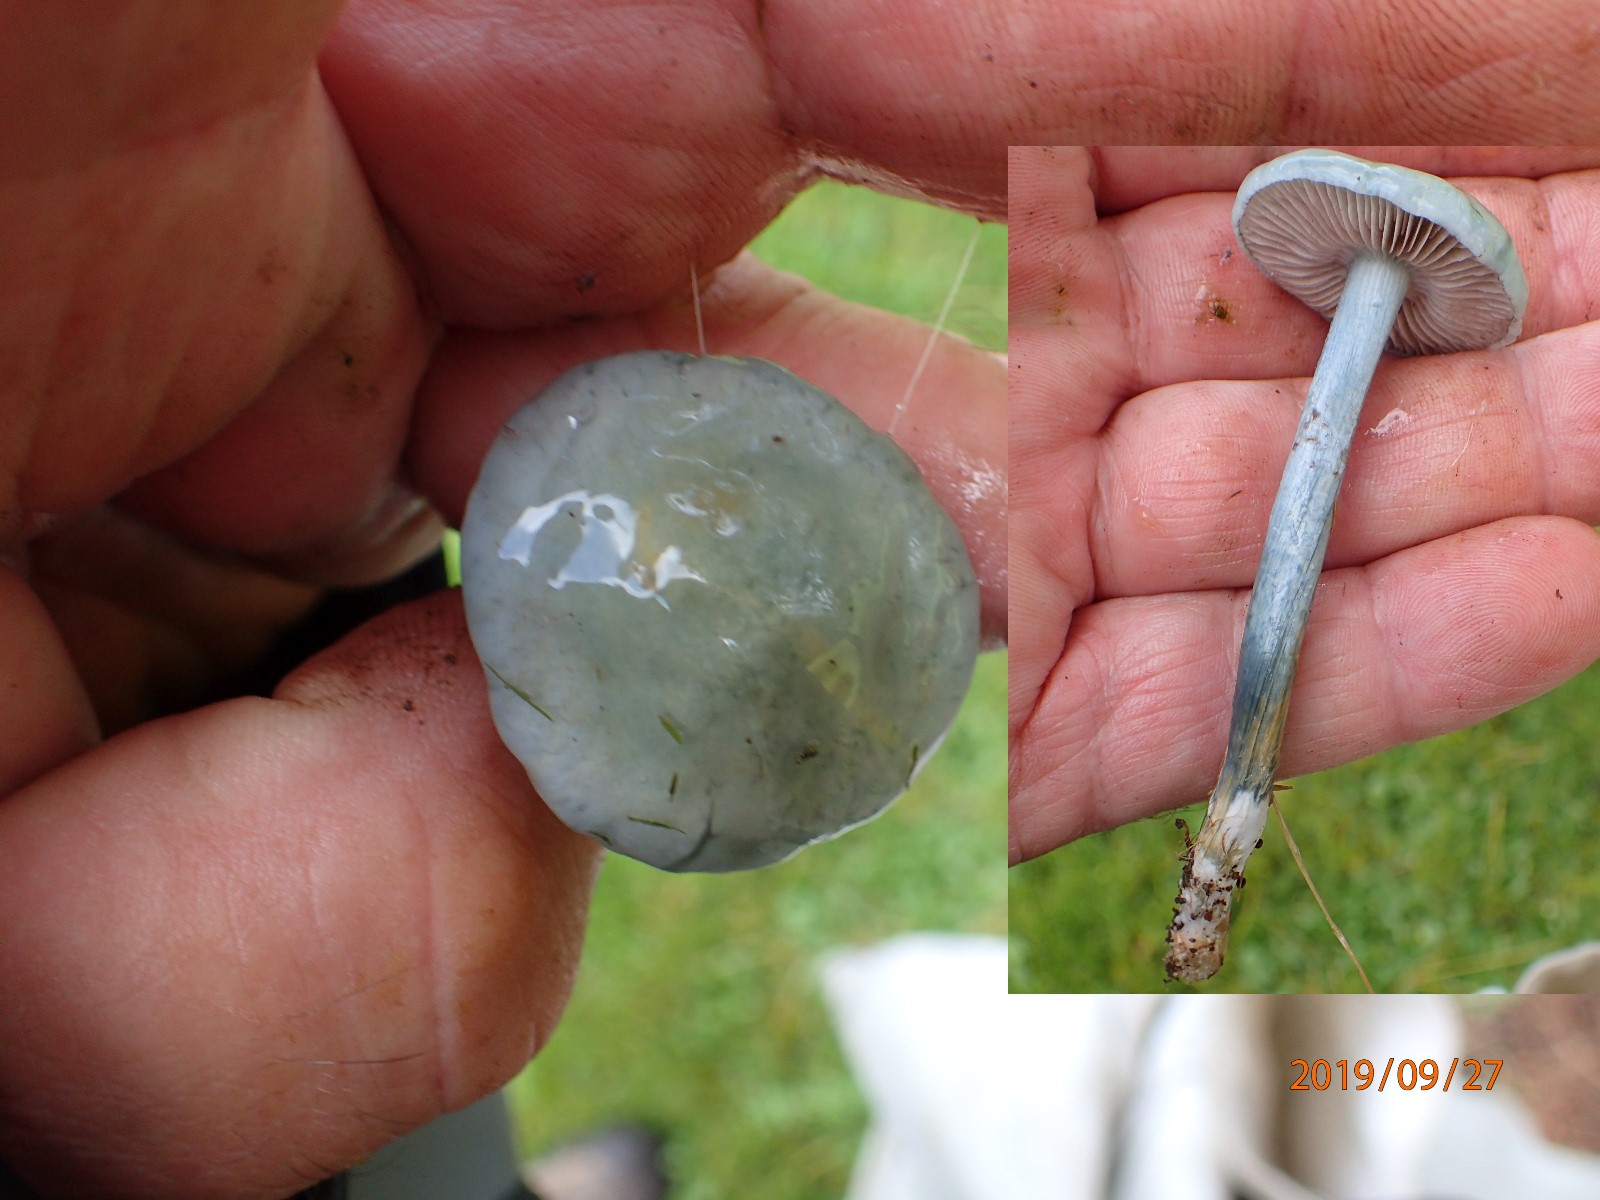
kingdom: Fungi
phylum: Basidiomycota
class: Agaricomycetes
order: Agaricales
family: Strophariaceae
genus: Stropharia
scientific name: Stropharia cyanea
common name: blågrøn bredblad
